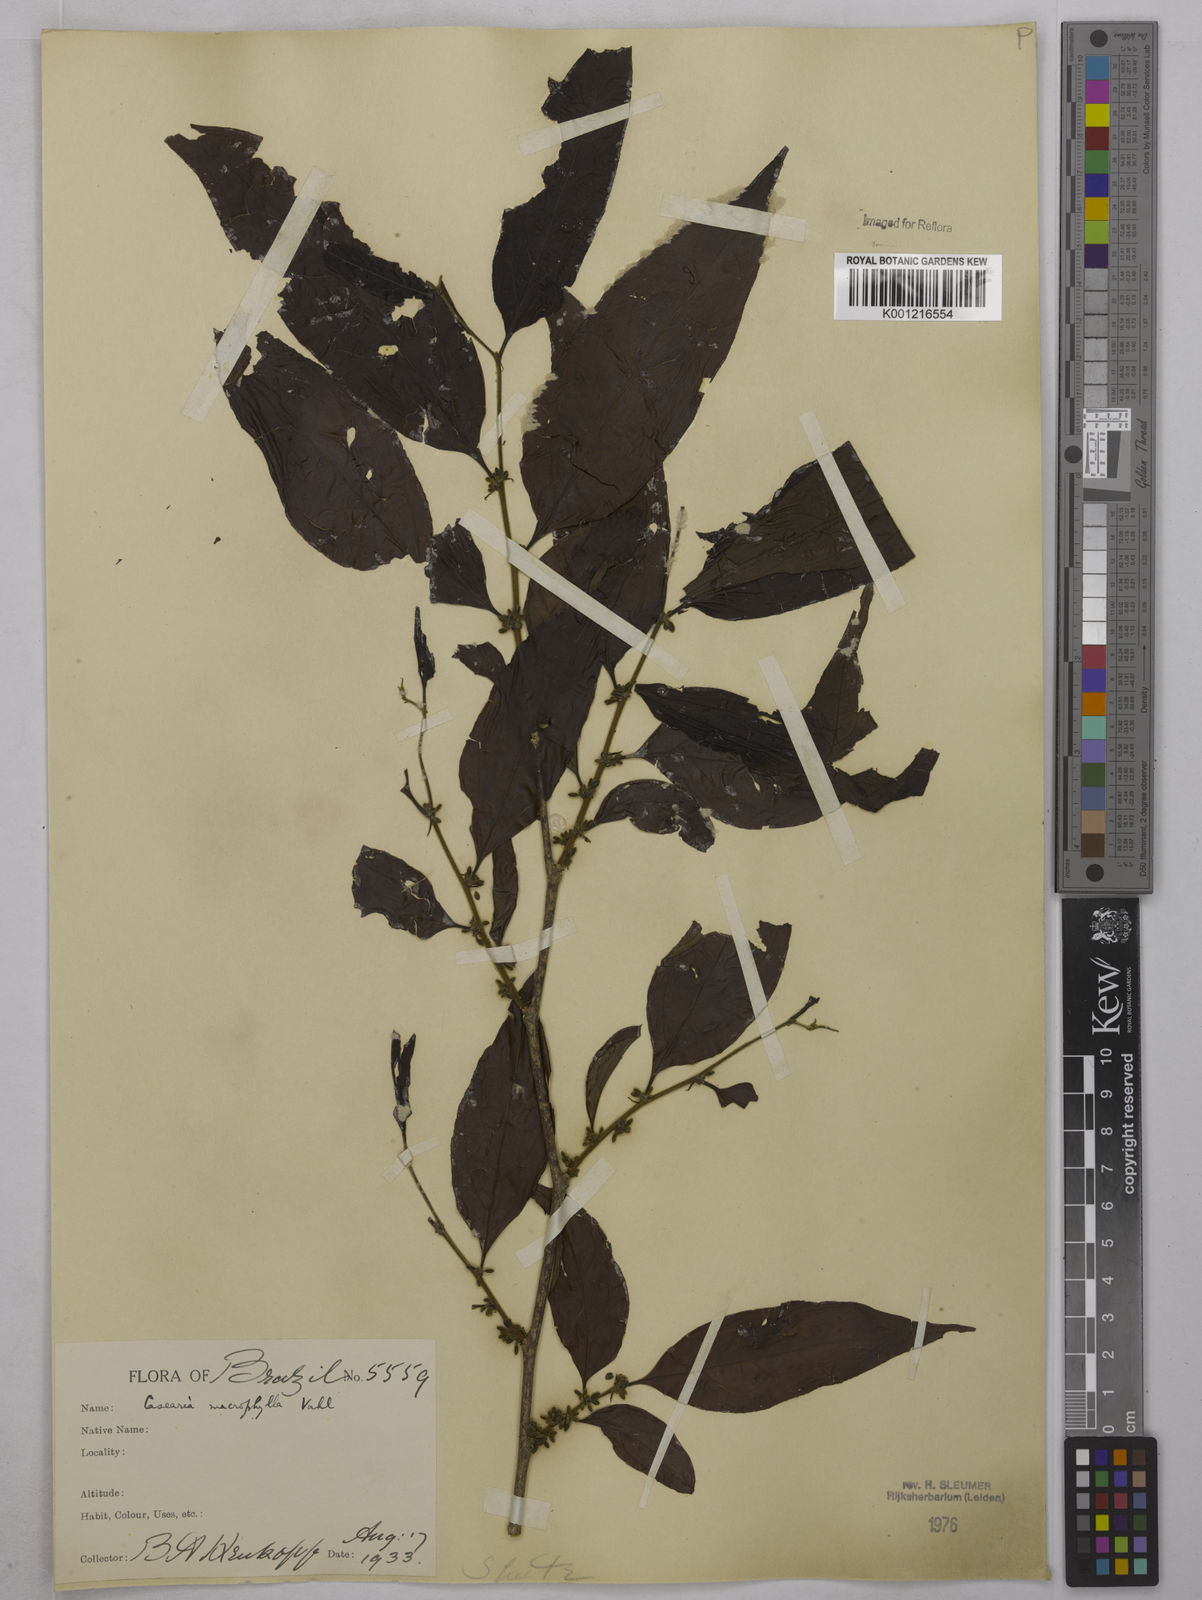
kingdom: Plantae
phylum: Tracheophyta
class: Magnoliopsida
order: Malpighiales
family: Salicaceae
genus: Casearia
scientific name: Casearia pitumba
